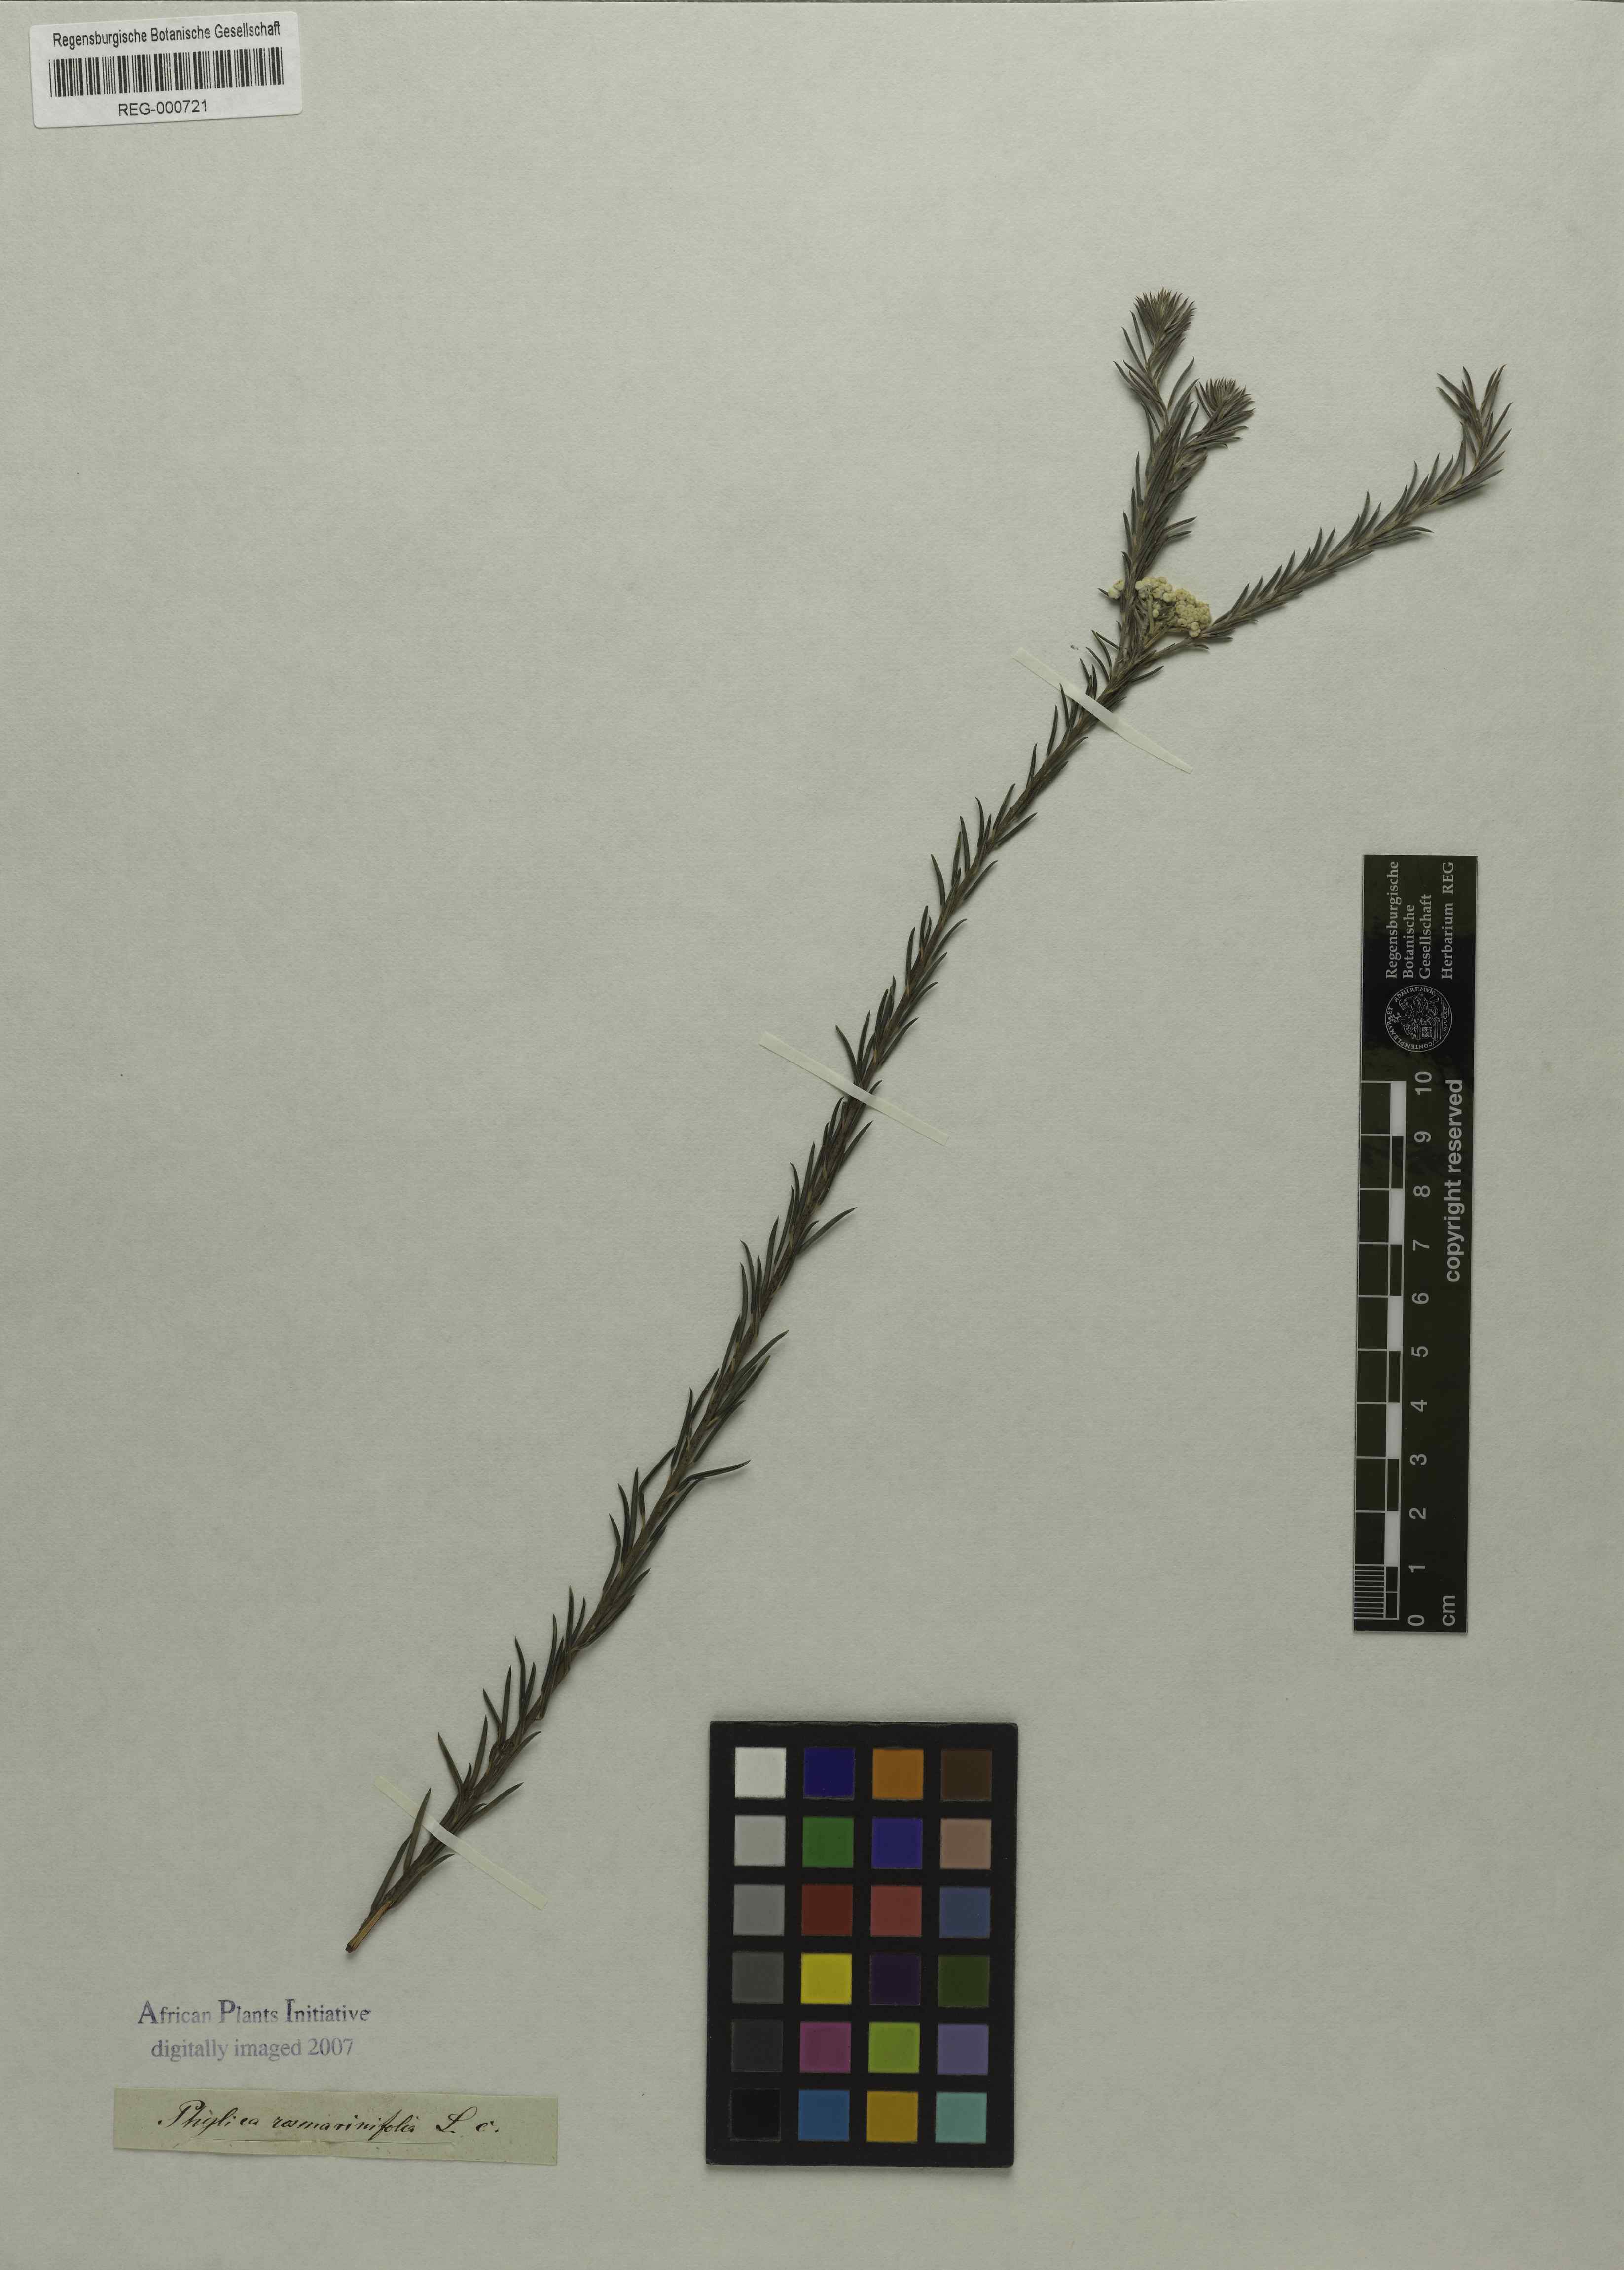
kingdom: Plantae
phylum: Tracheophyta
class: Magnoliopsida
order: Rosales
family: Rhamnaceae
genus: Phylica
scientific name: Phylica
